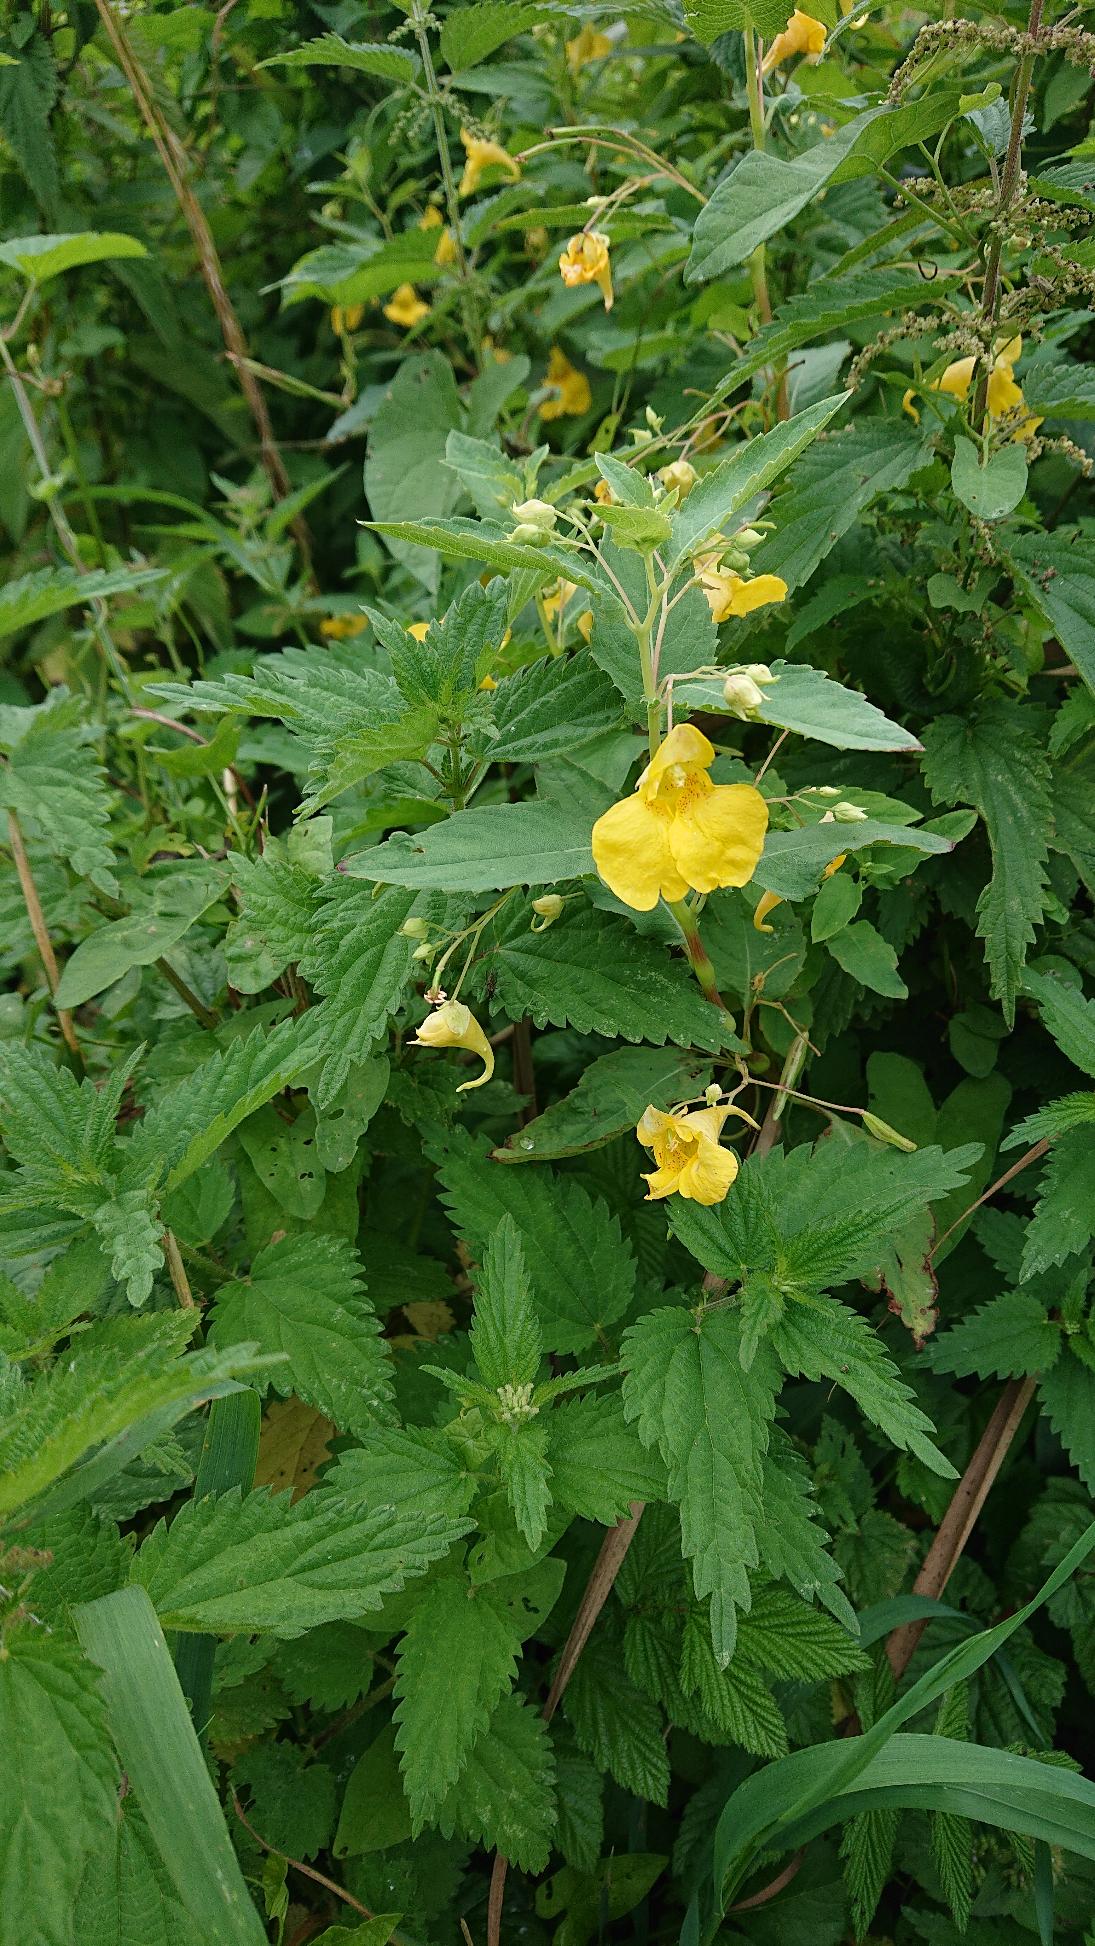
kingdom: Plantae
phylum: Tracheophyta
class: Magnoliopsida
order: Ericales
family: Balsaminaceae
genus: Impatiens
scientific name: Impatiens noli-tangere
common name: Spring-balsamin
